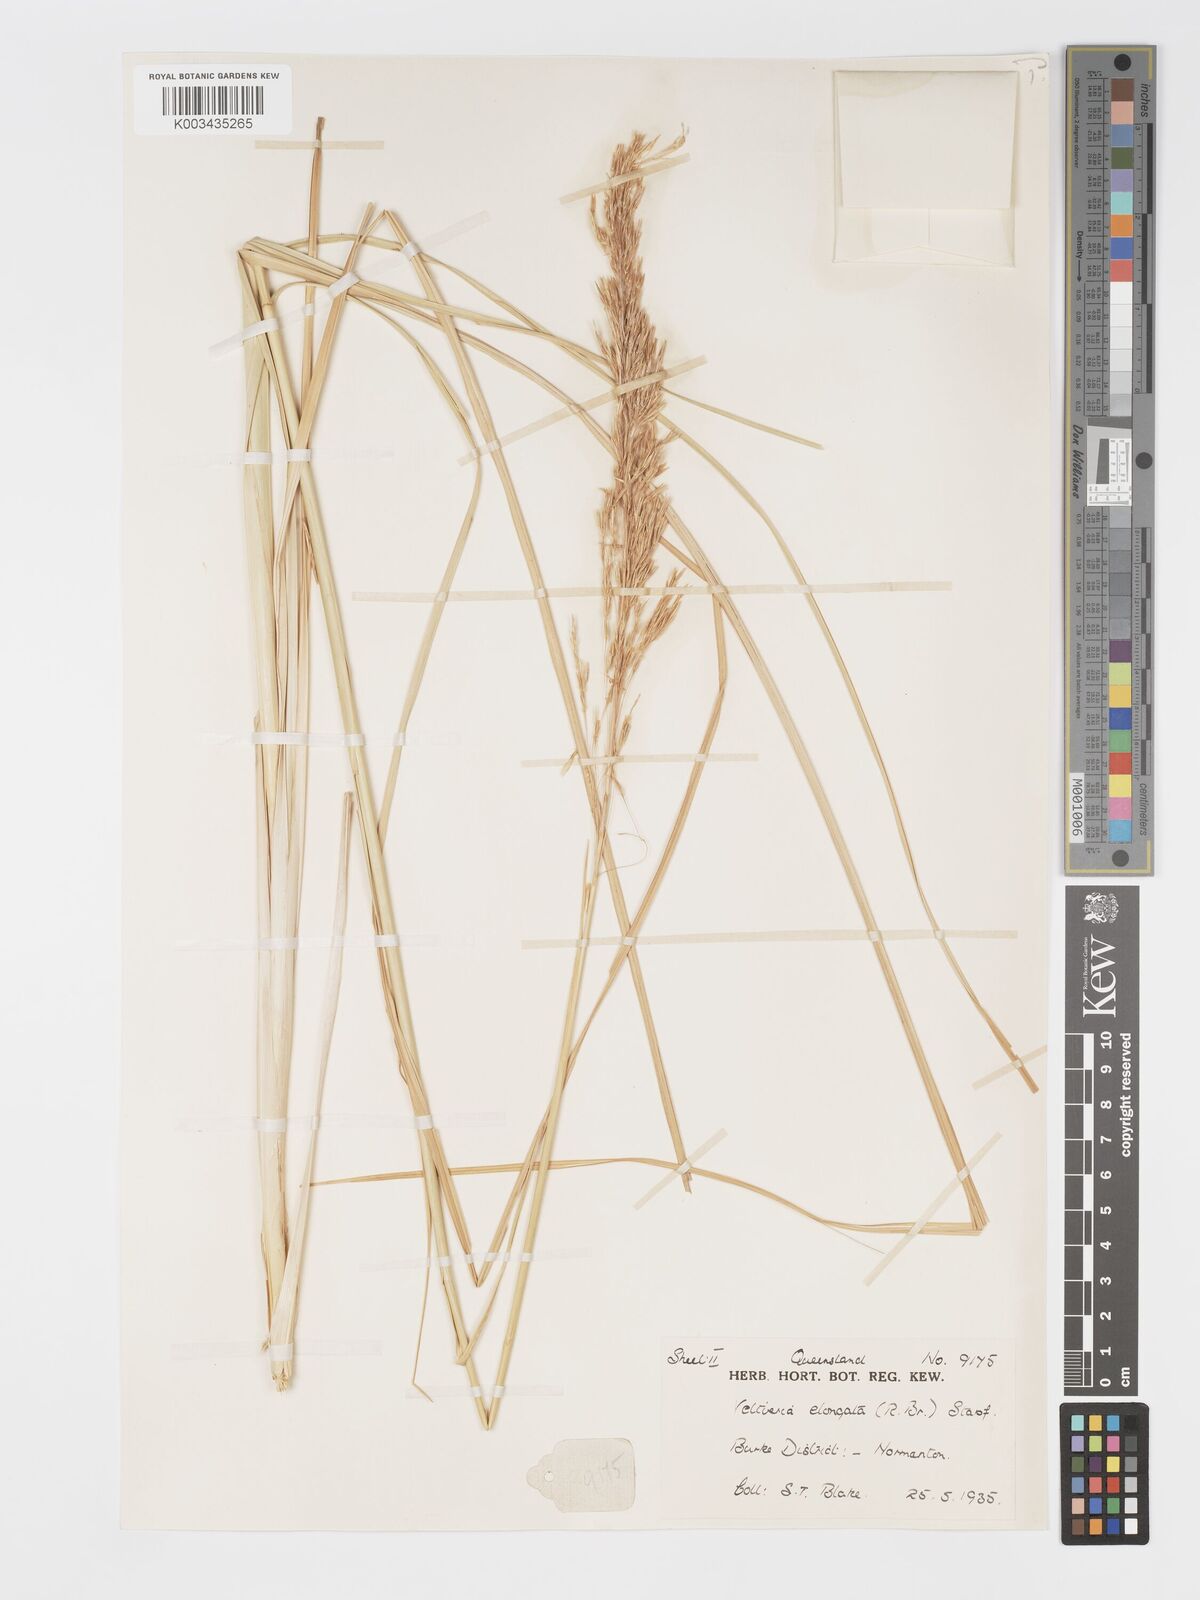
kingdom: Plantae
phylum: Tracheophyta
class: Liliopsida
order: Poales
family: Poaceae
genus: Chrysopogon
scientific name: Chrysopogon elongatus
